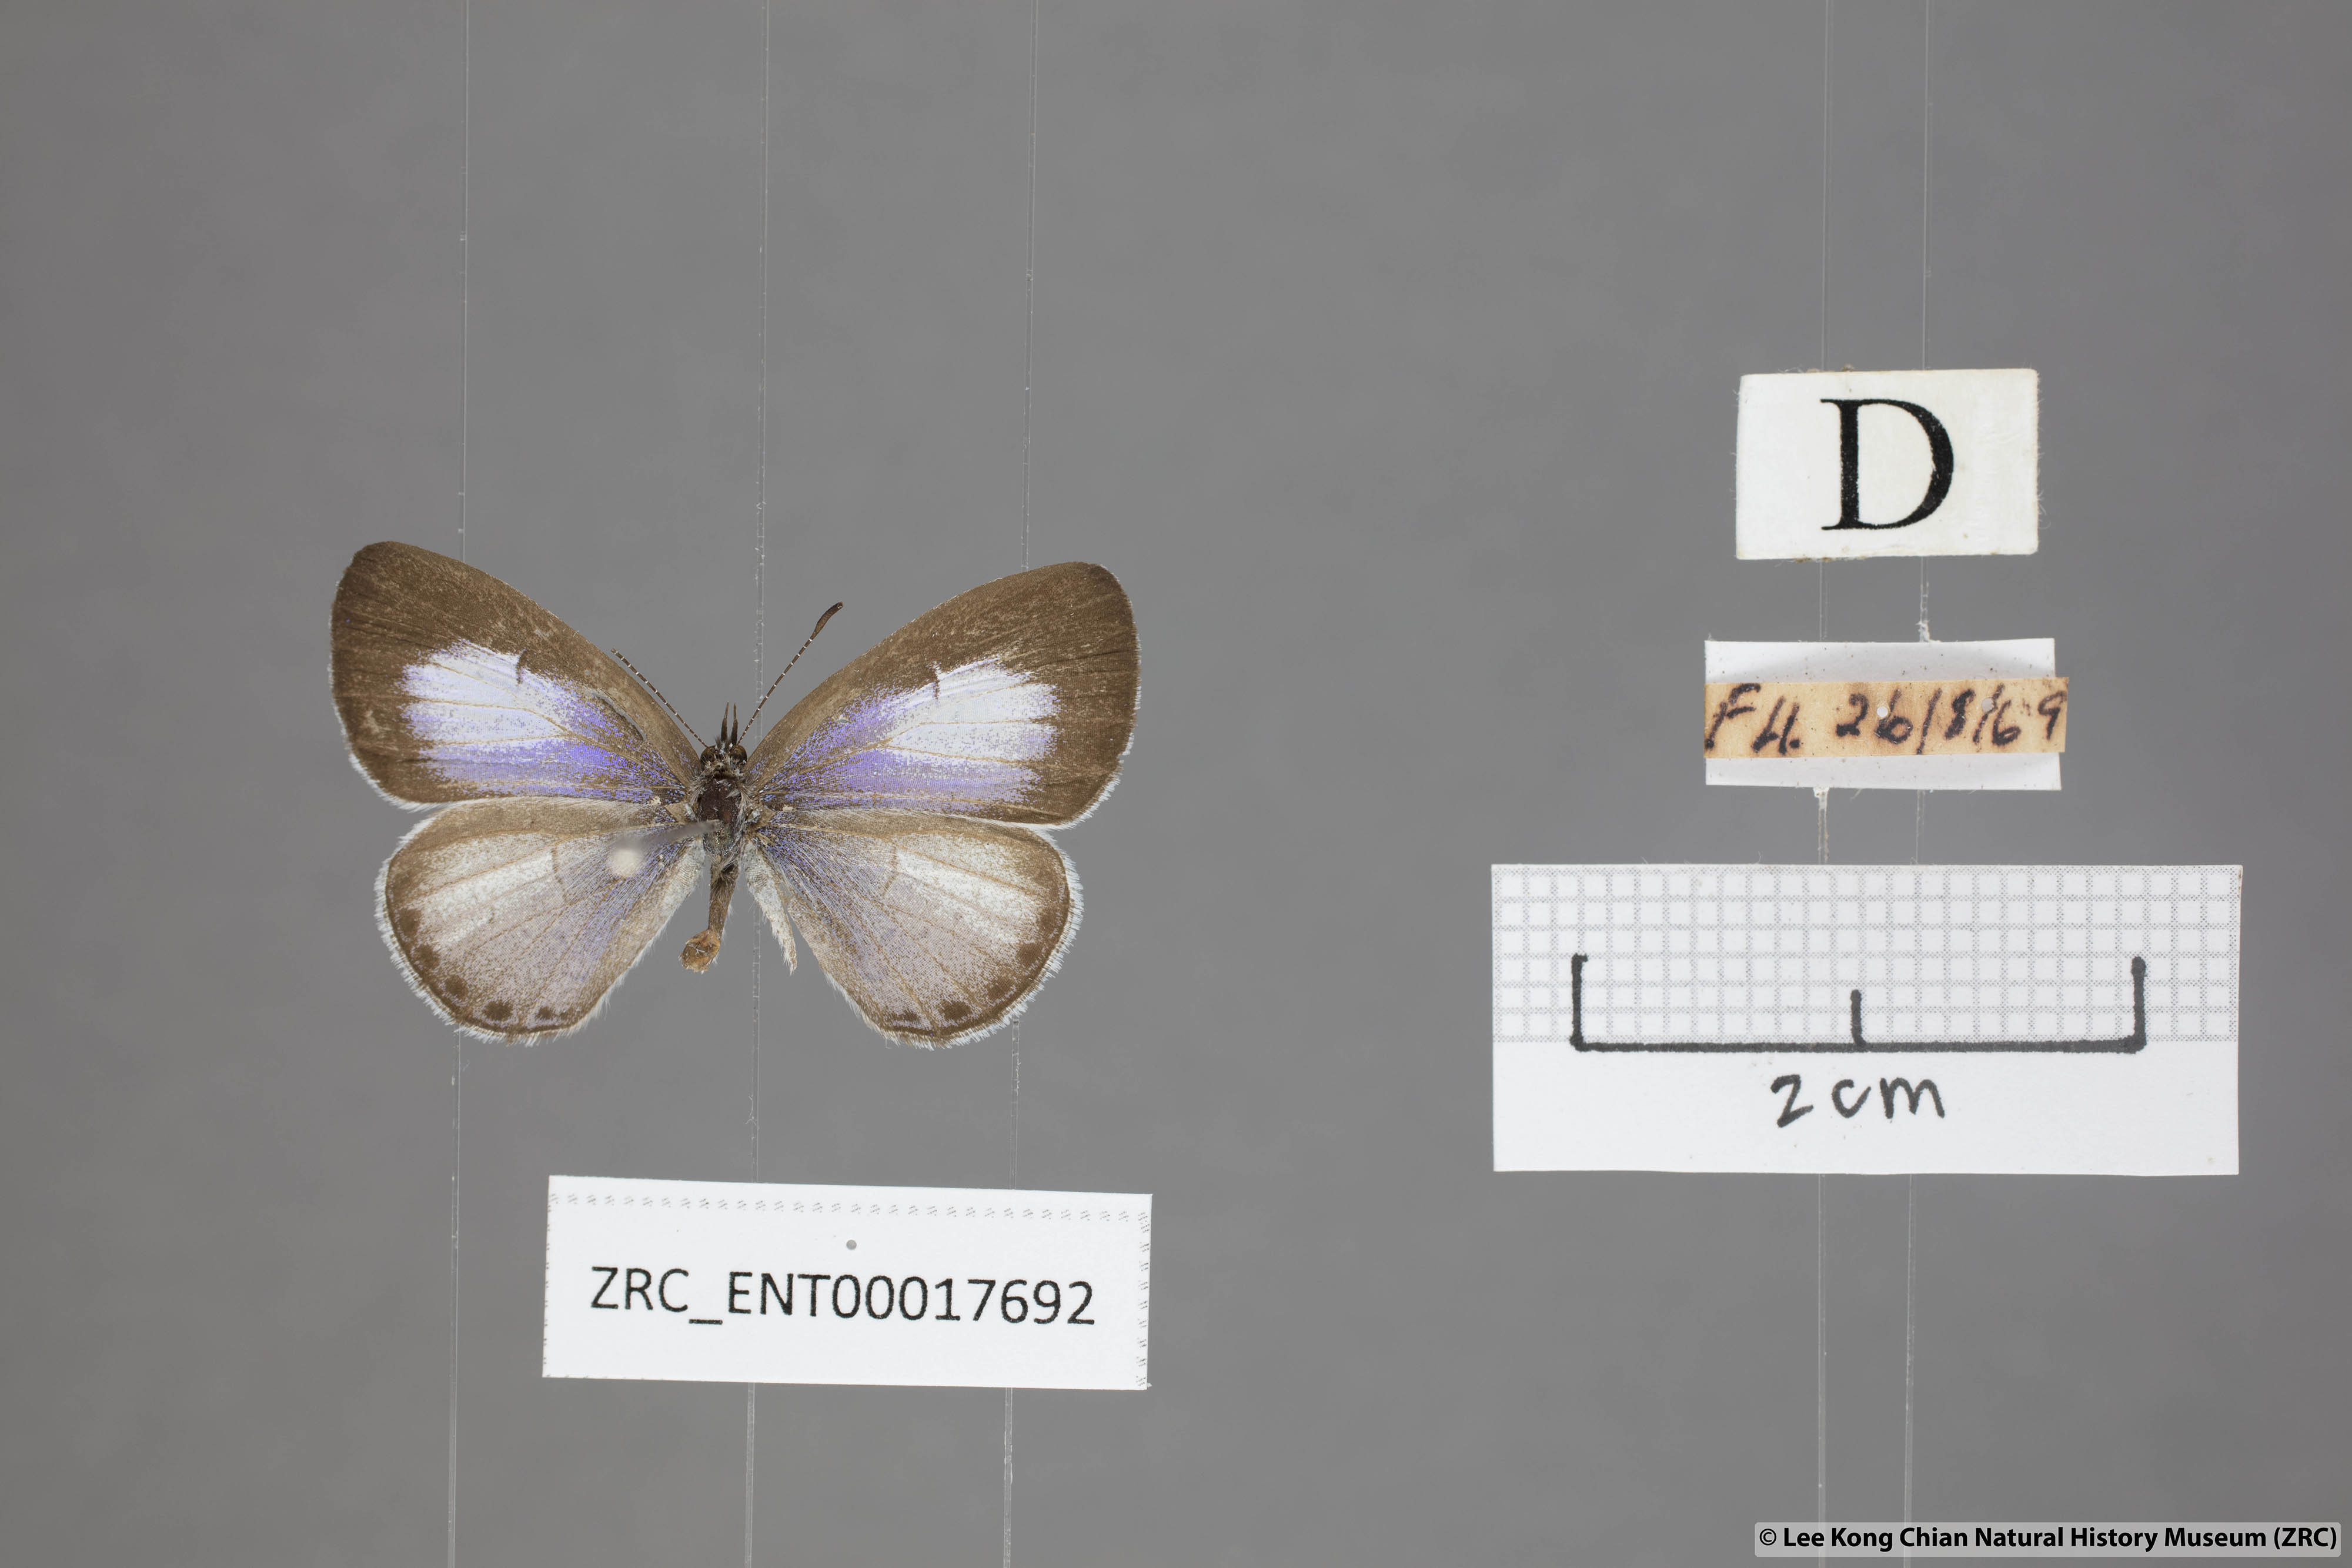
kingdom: Animalia
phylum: Arthropoda
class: Insecta
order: Lepidoptera
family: Lycaenidae
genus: Udara
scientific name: Udara camenae
